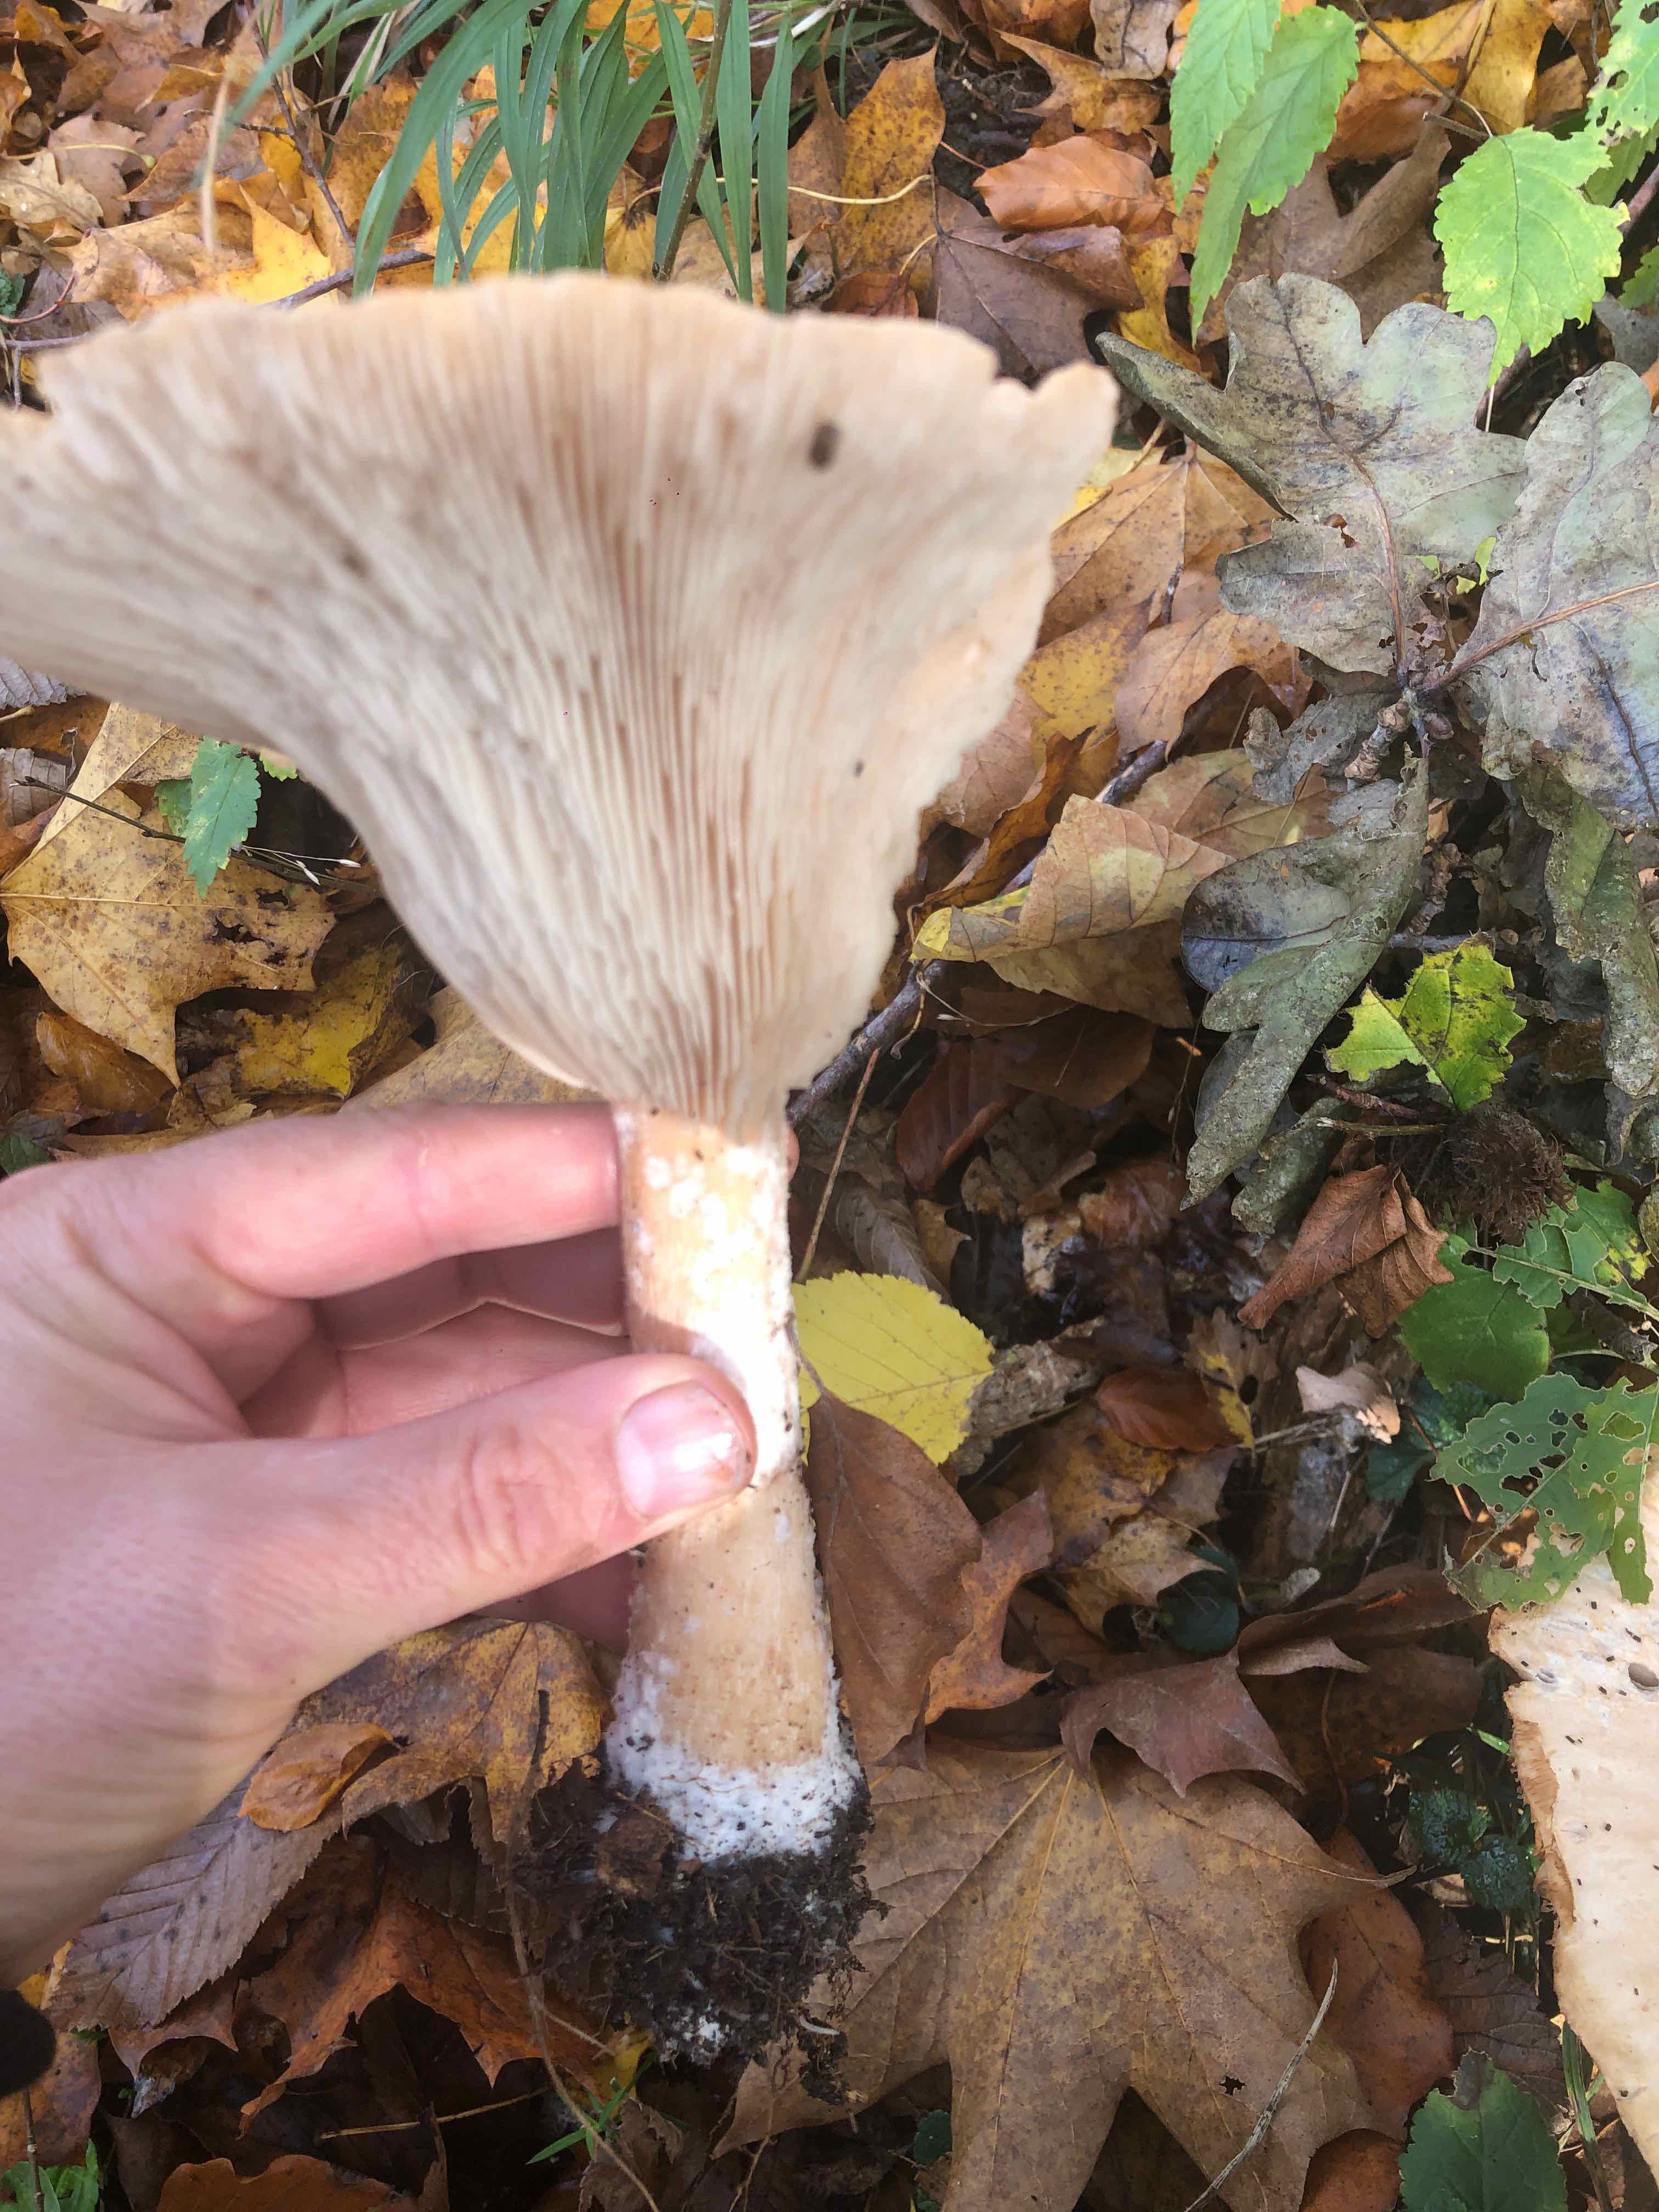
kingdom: Fungi
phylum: Basidiomycota
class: Agaricomycetes
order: Agaricales
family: Tricholomataceae
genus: Infundibulicybe
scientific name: Infundibulicybe geotropa
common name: stor tragthat
